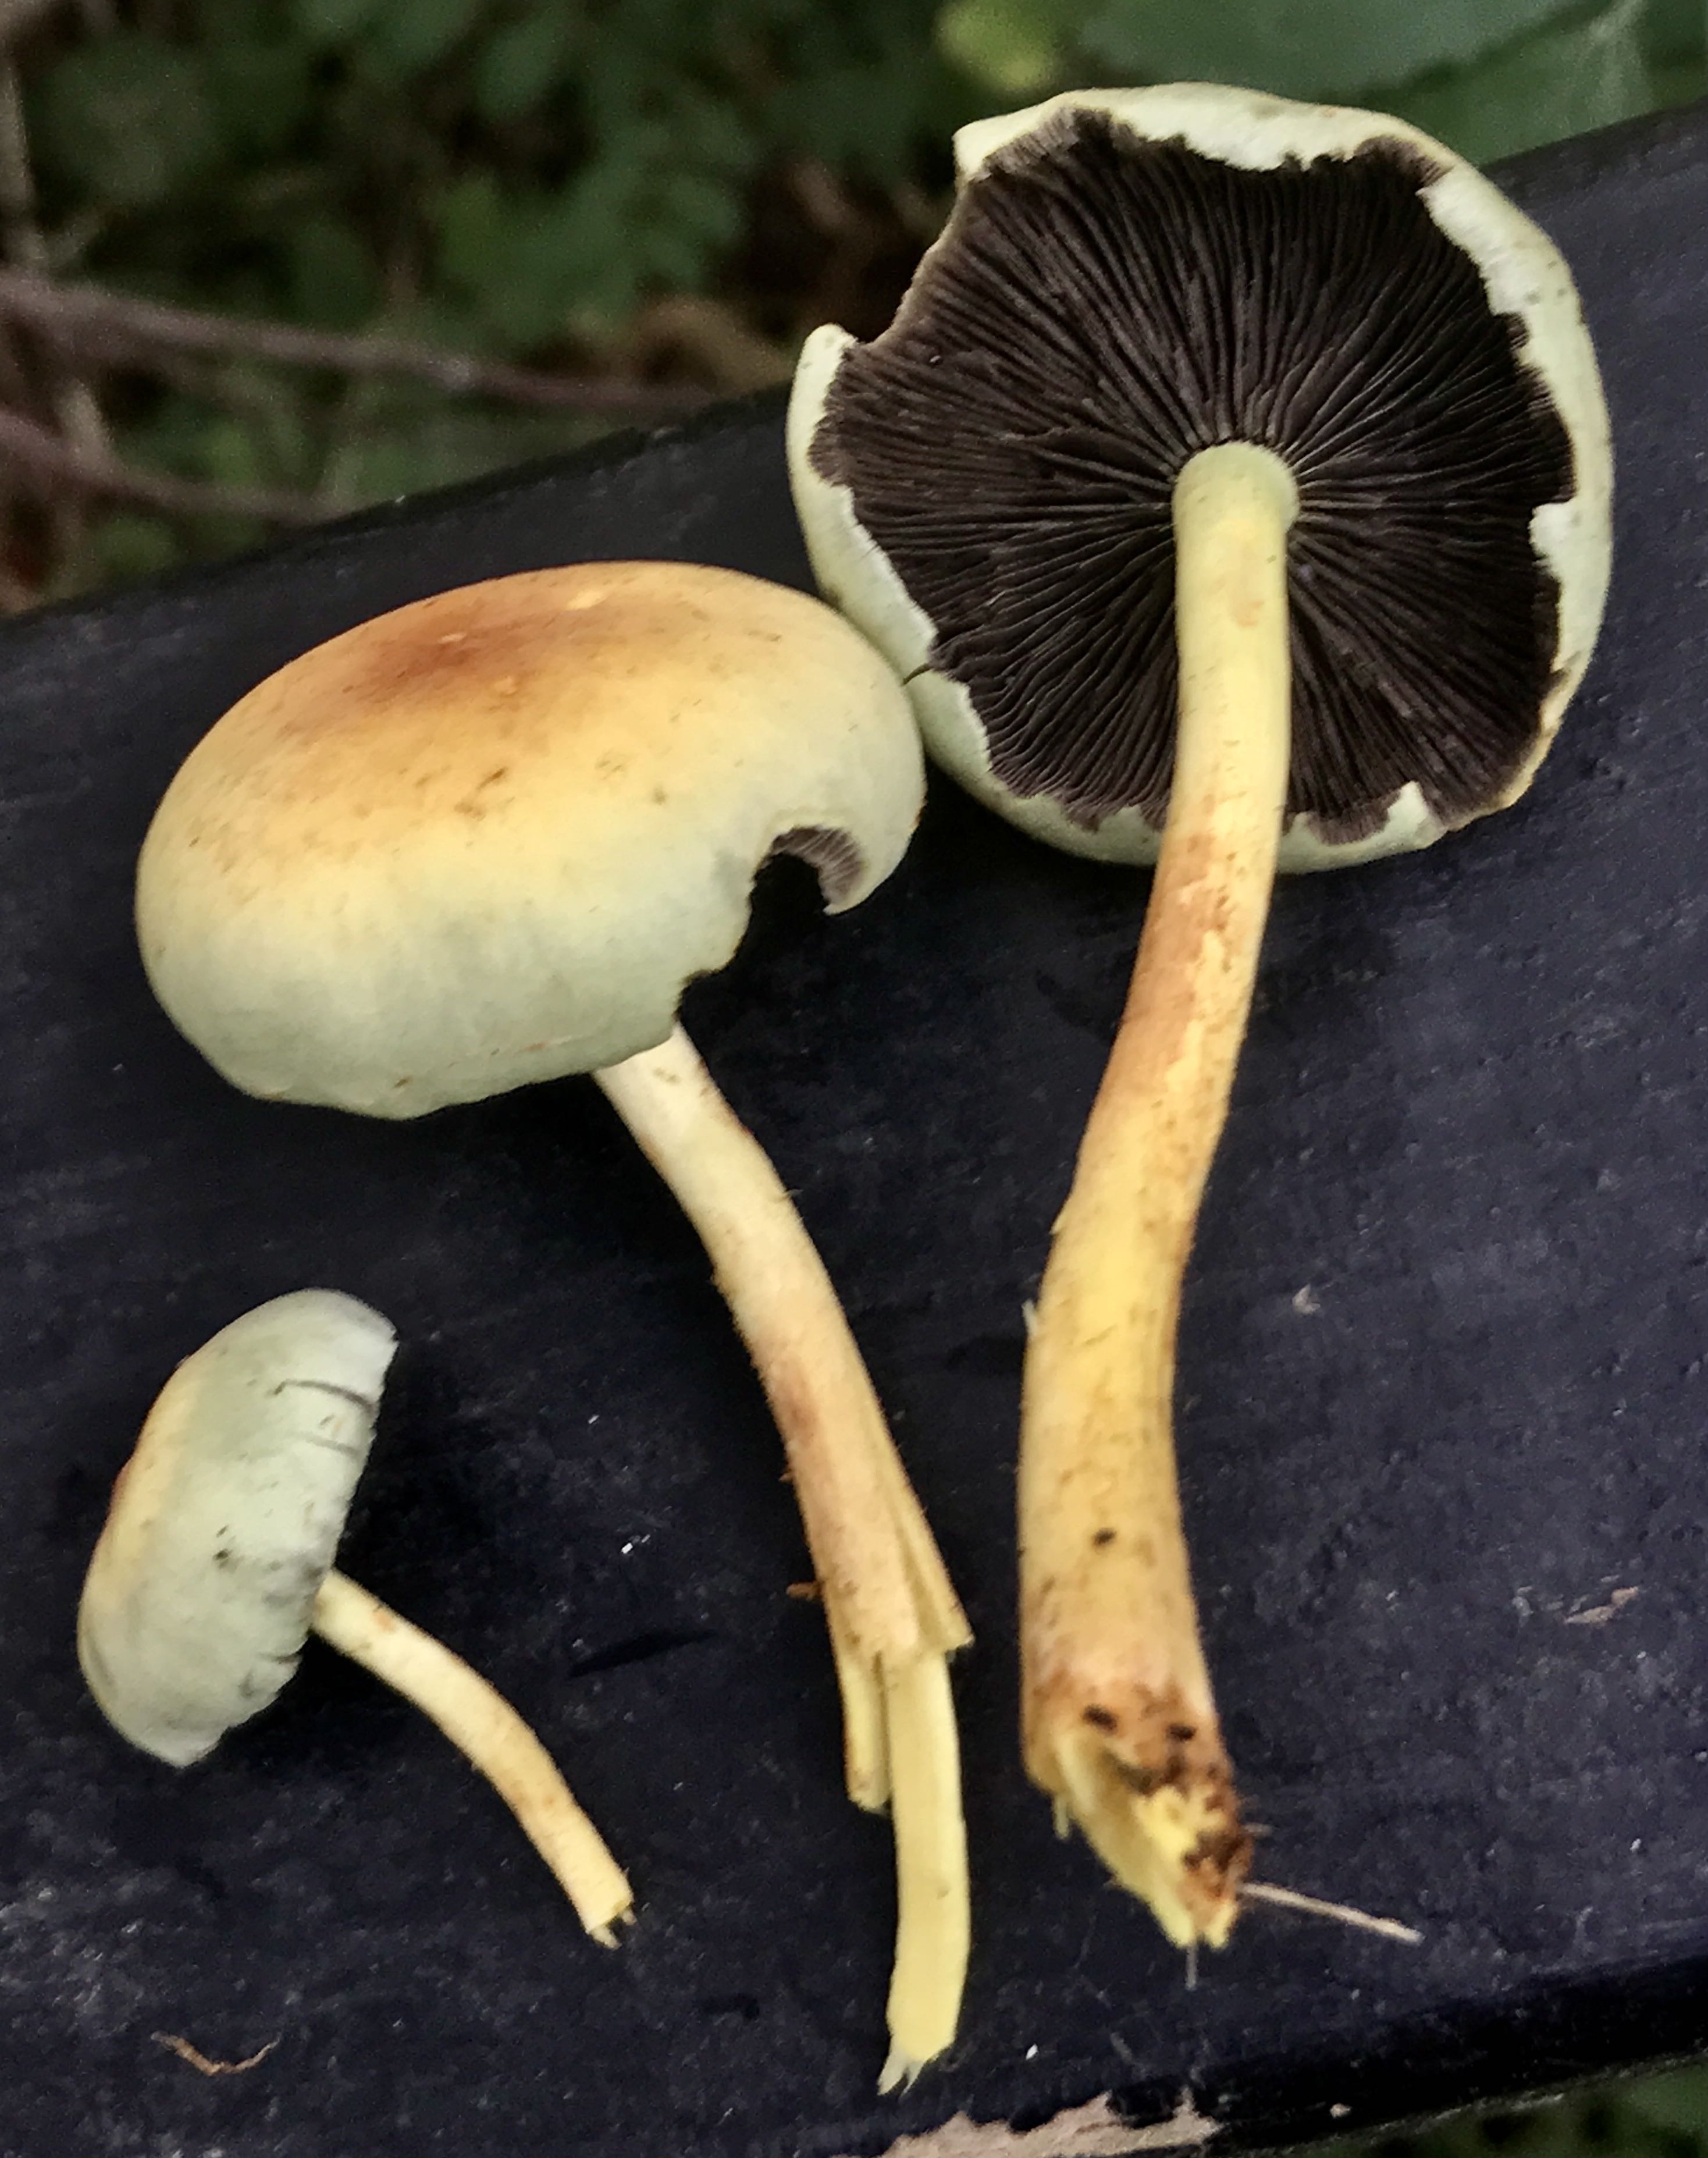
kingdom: Fungi
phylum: Basidiomycota
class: Agaricomycetes
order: Agaricales
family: Strophariaceae
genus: Hypholoma
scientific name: Hypholoma fasciculare
